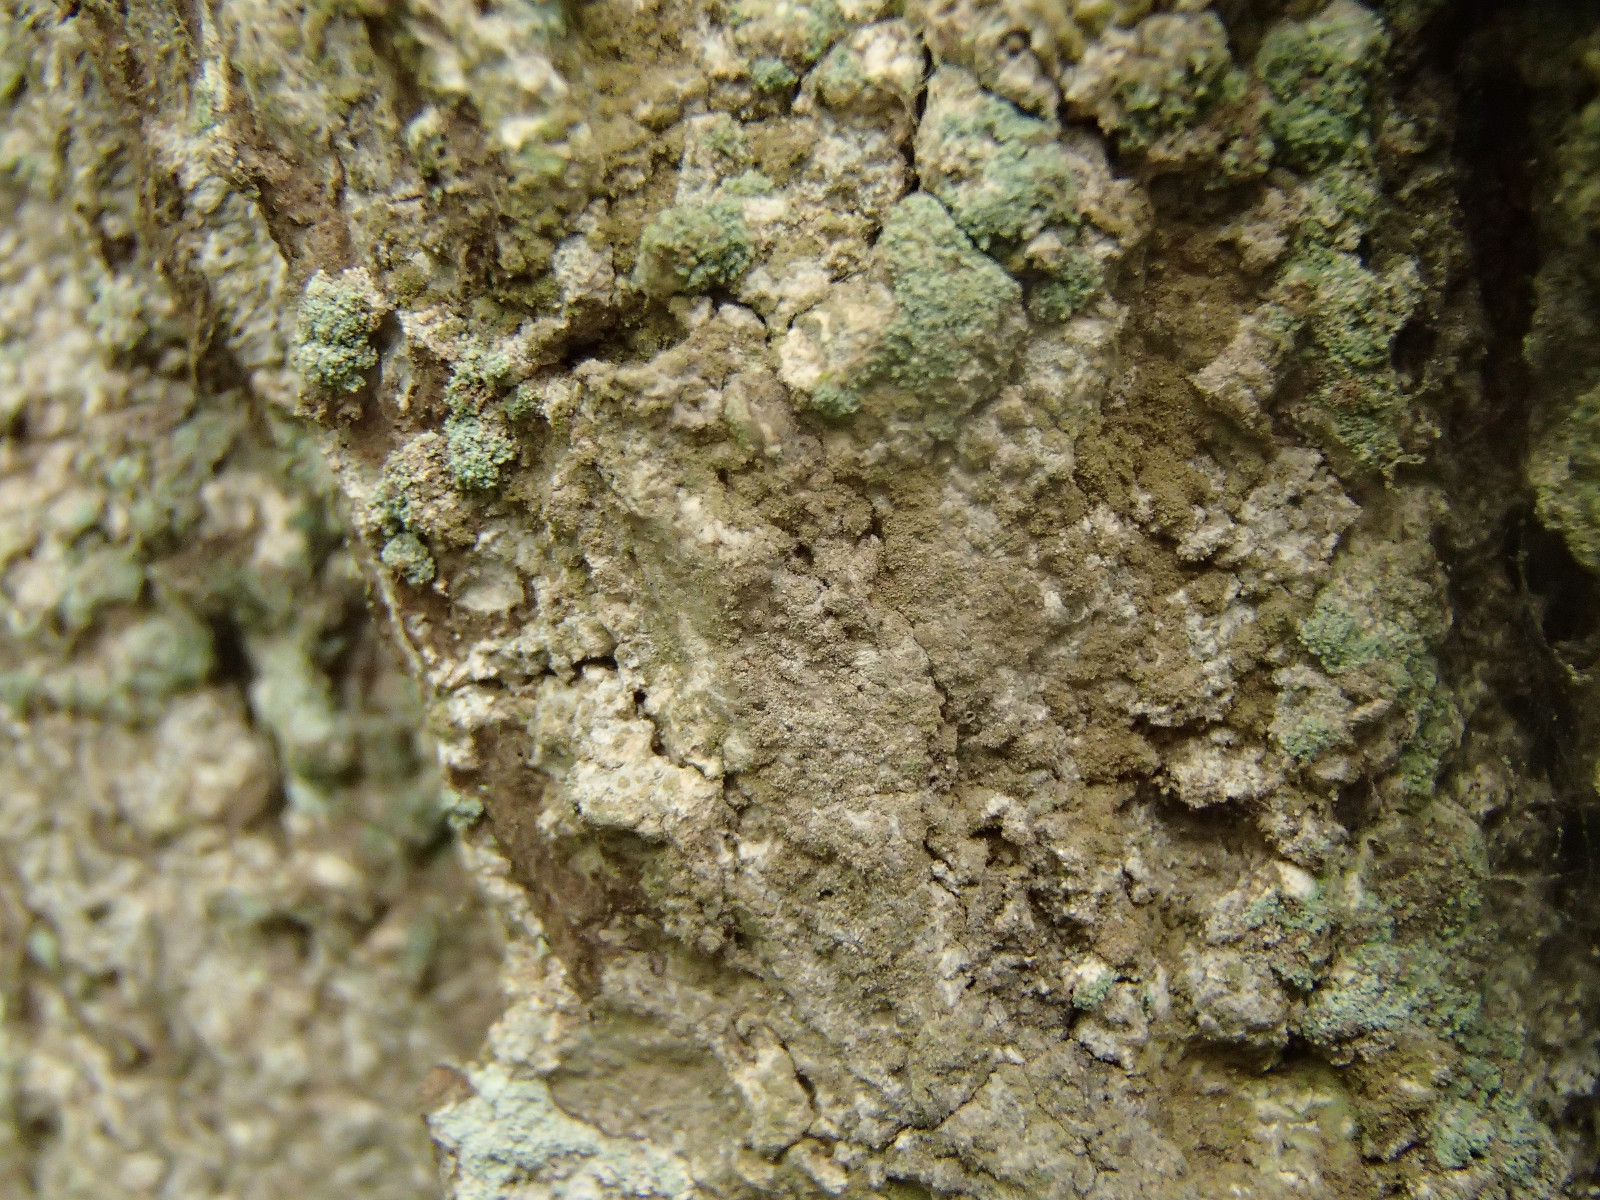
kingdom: Fungi
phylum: Ascomycota
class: Arthoniomycetes
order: Arthoniales
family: Roccellaceae
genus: Dendrographa
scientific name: Dendrographa decolorans
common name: forskelligfarvet skurvelav
